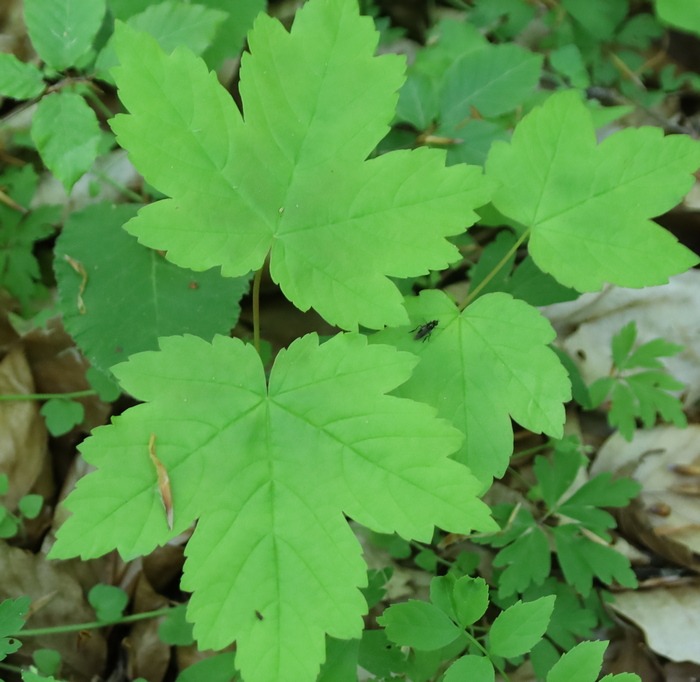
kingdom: Plantae
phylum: Tracheophyta
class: Magnoliopsida
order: Sapindales
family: Sapindaceae
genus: Acer
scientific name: Acer pseudoplatanus
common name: Ahorn
